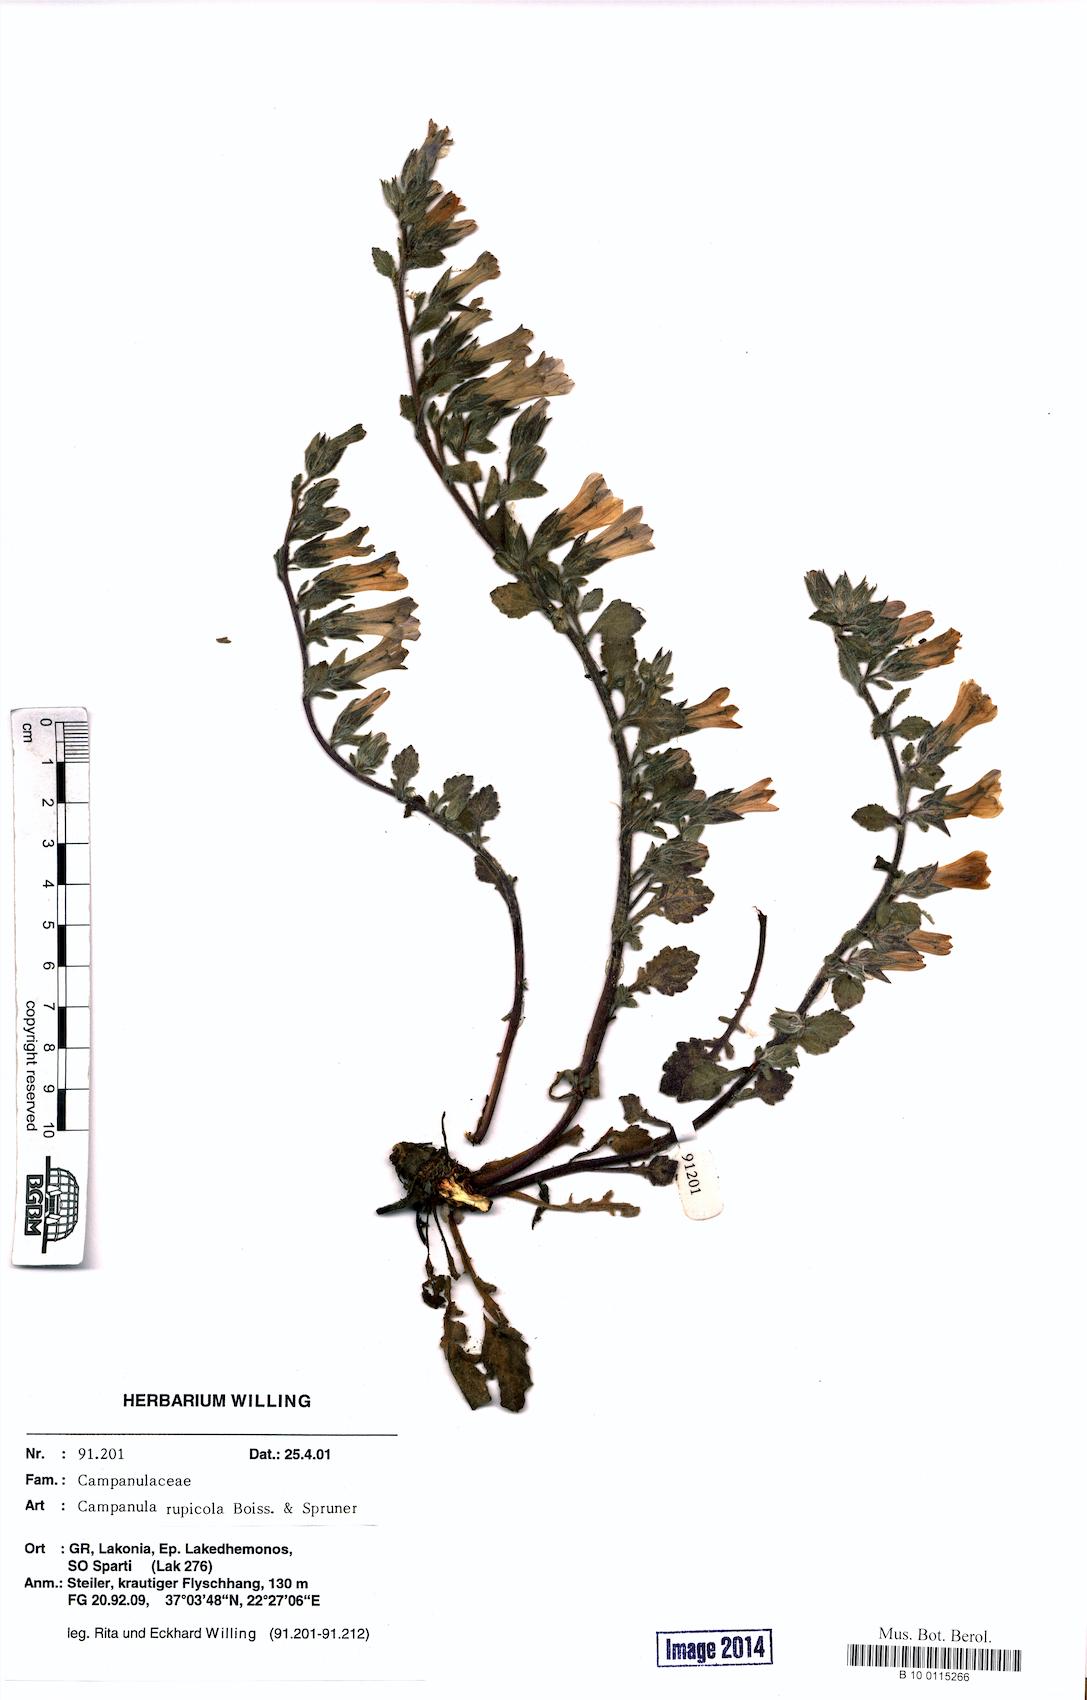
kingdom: Plantae
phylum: Tracheophyta
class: Magnoliopsida
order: Asterales
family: Campanulaceae
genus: Campanula
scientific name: Campanula rupicola
